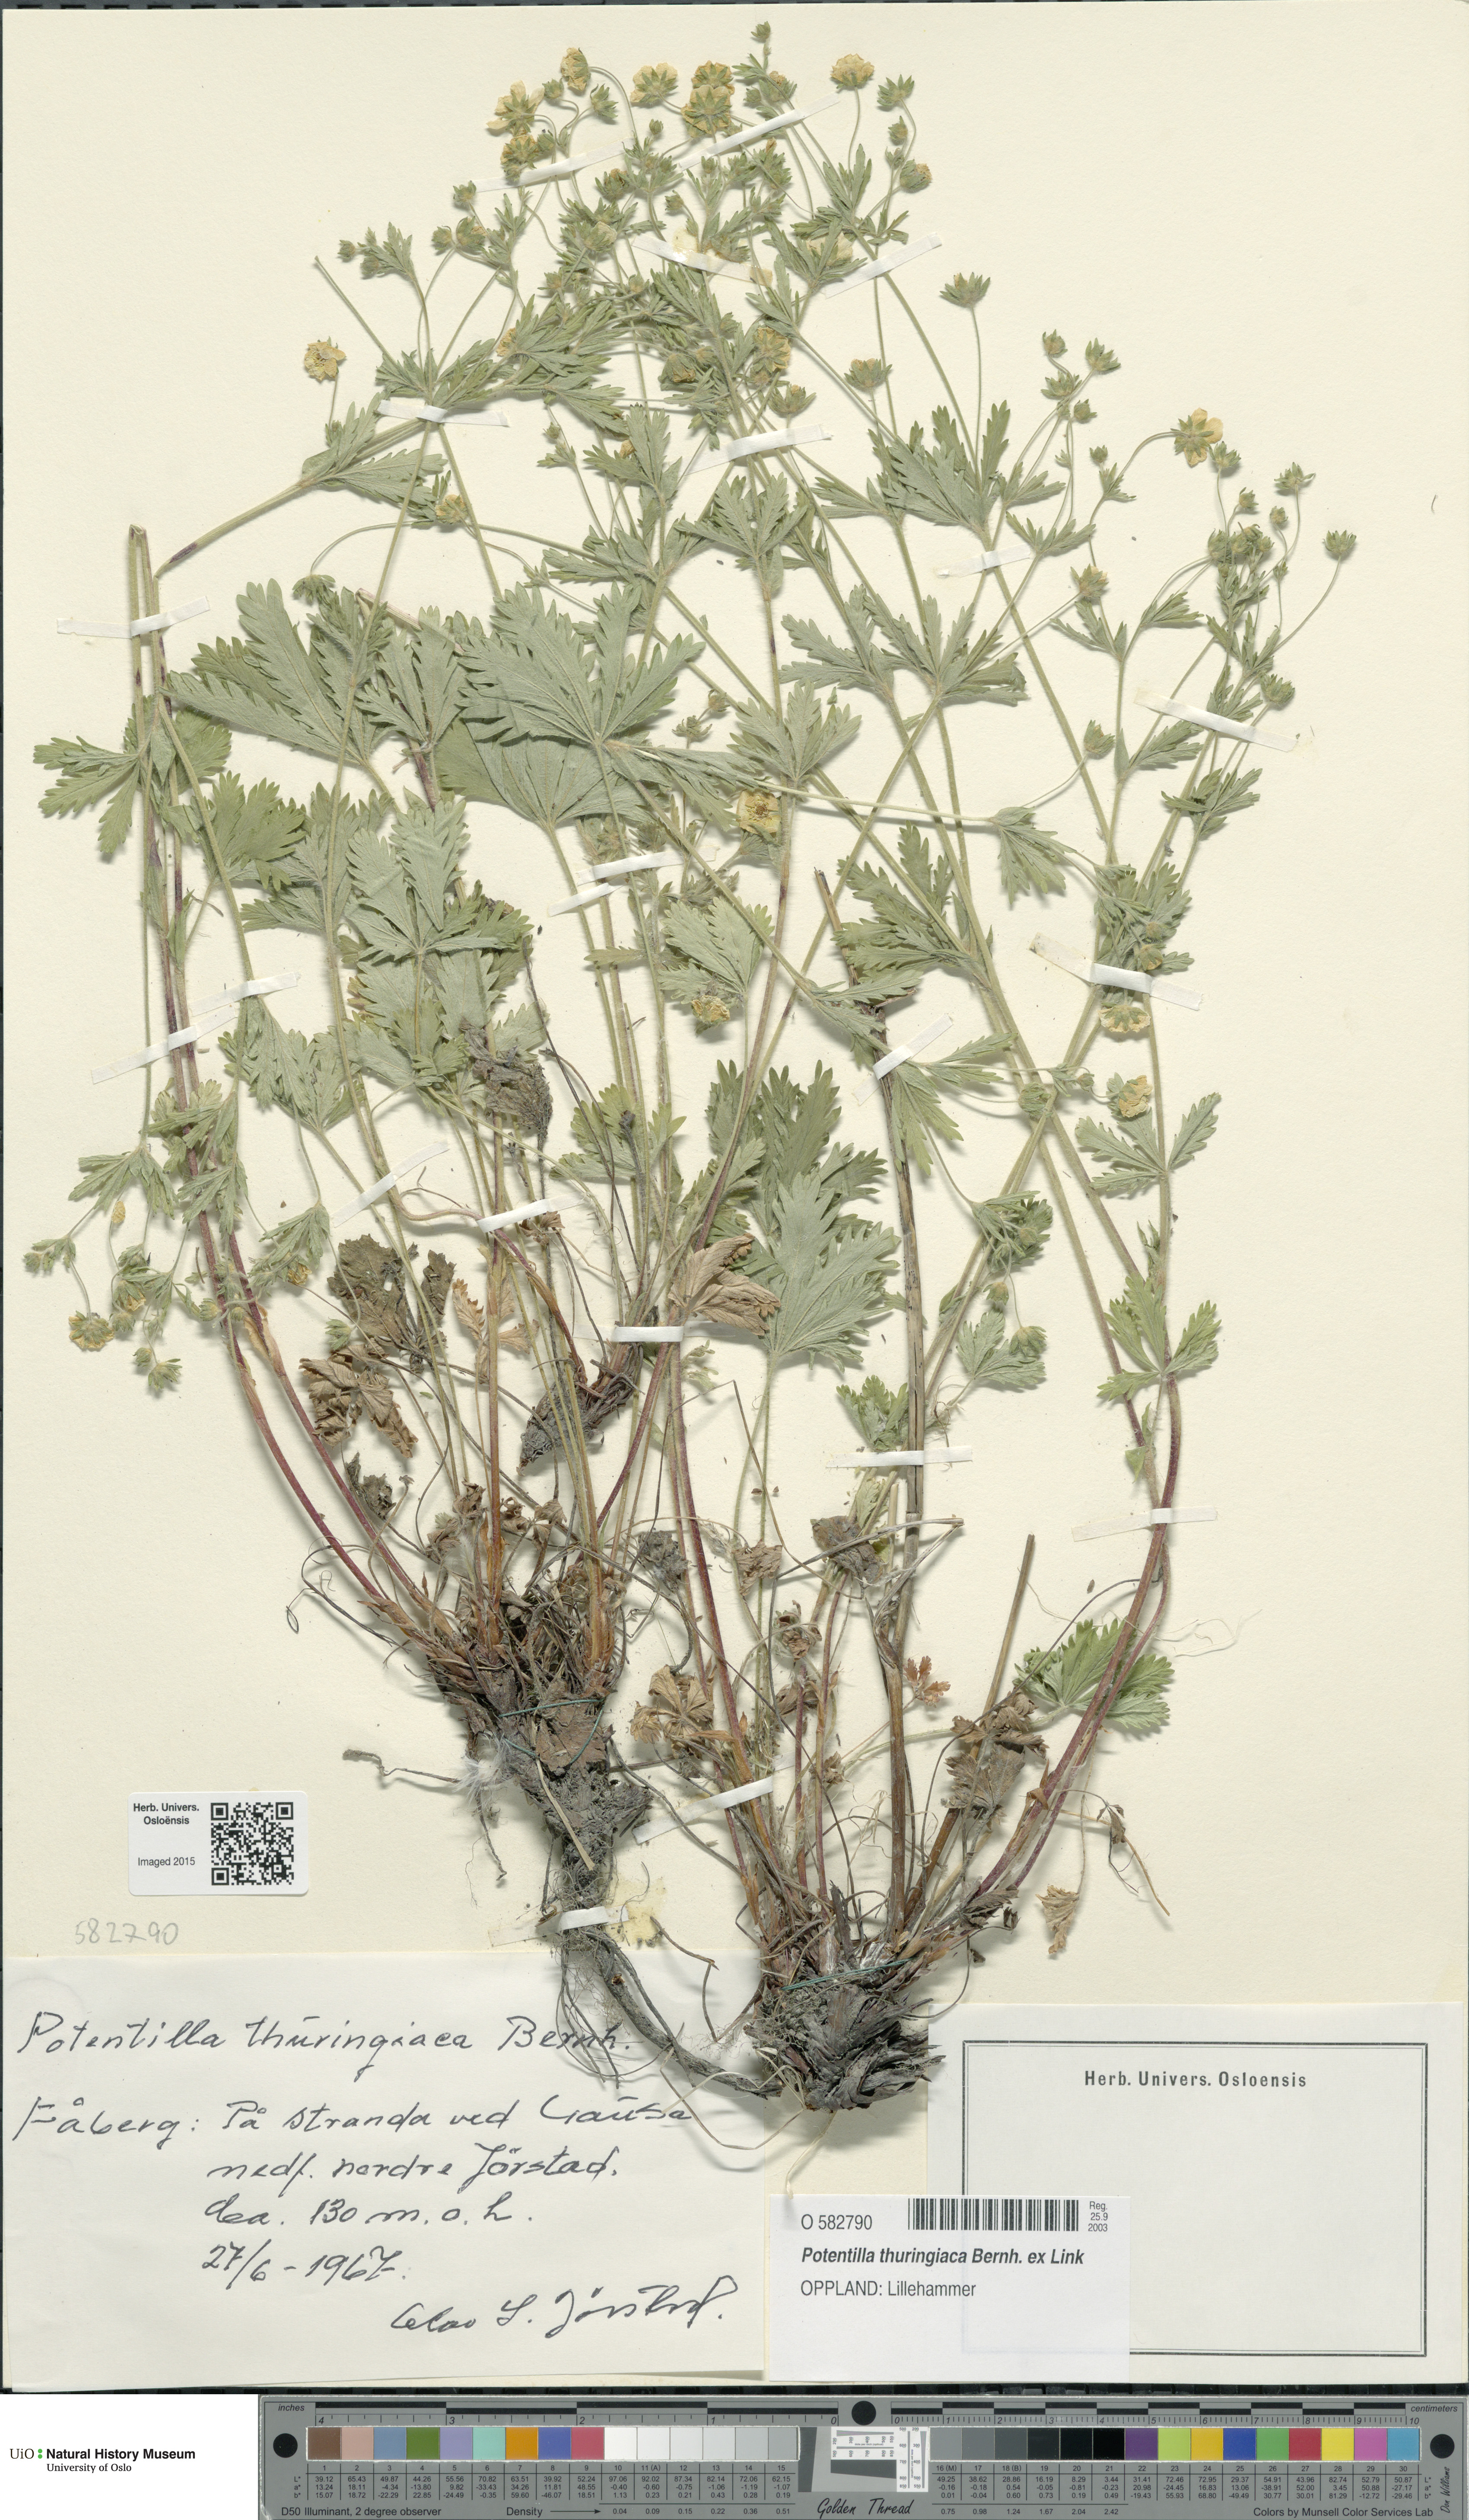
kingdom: Plantae
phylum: Tracheophyta
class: Magnoliopsida
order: Rosales
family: Rosaceae
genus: Potentilla
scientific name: Potentilla thuringiaca
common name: European cinquefoil
